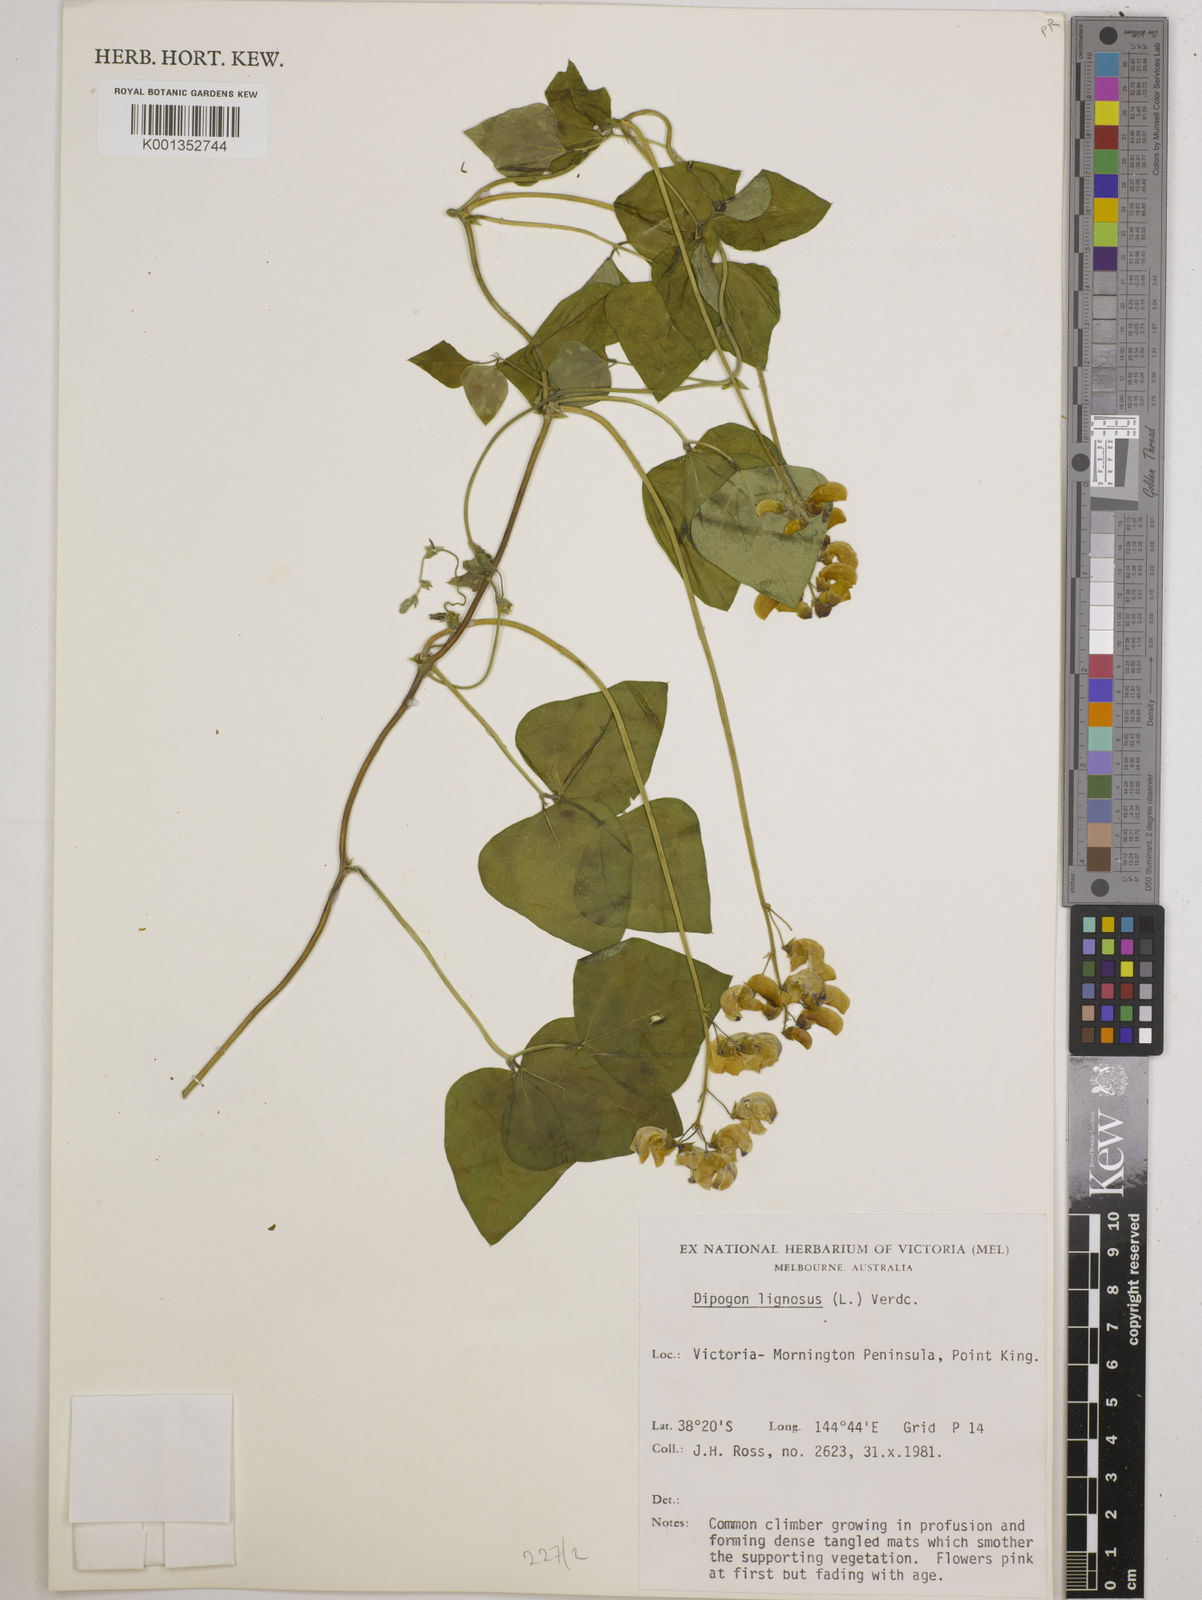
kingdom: Plantae
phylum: Tracheophyta
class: Magnoliopsida
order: Fabales
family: Fabaceae
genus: Dipogon
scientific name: Dipogon lignosus
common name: Okie bean
